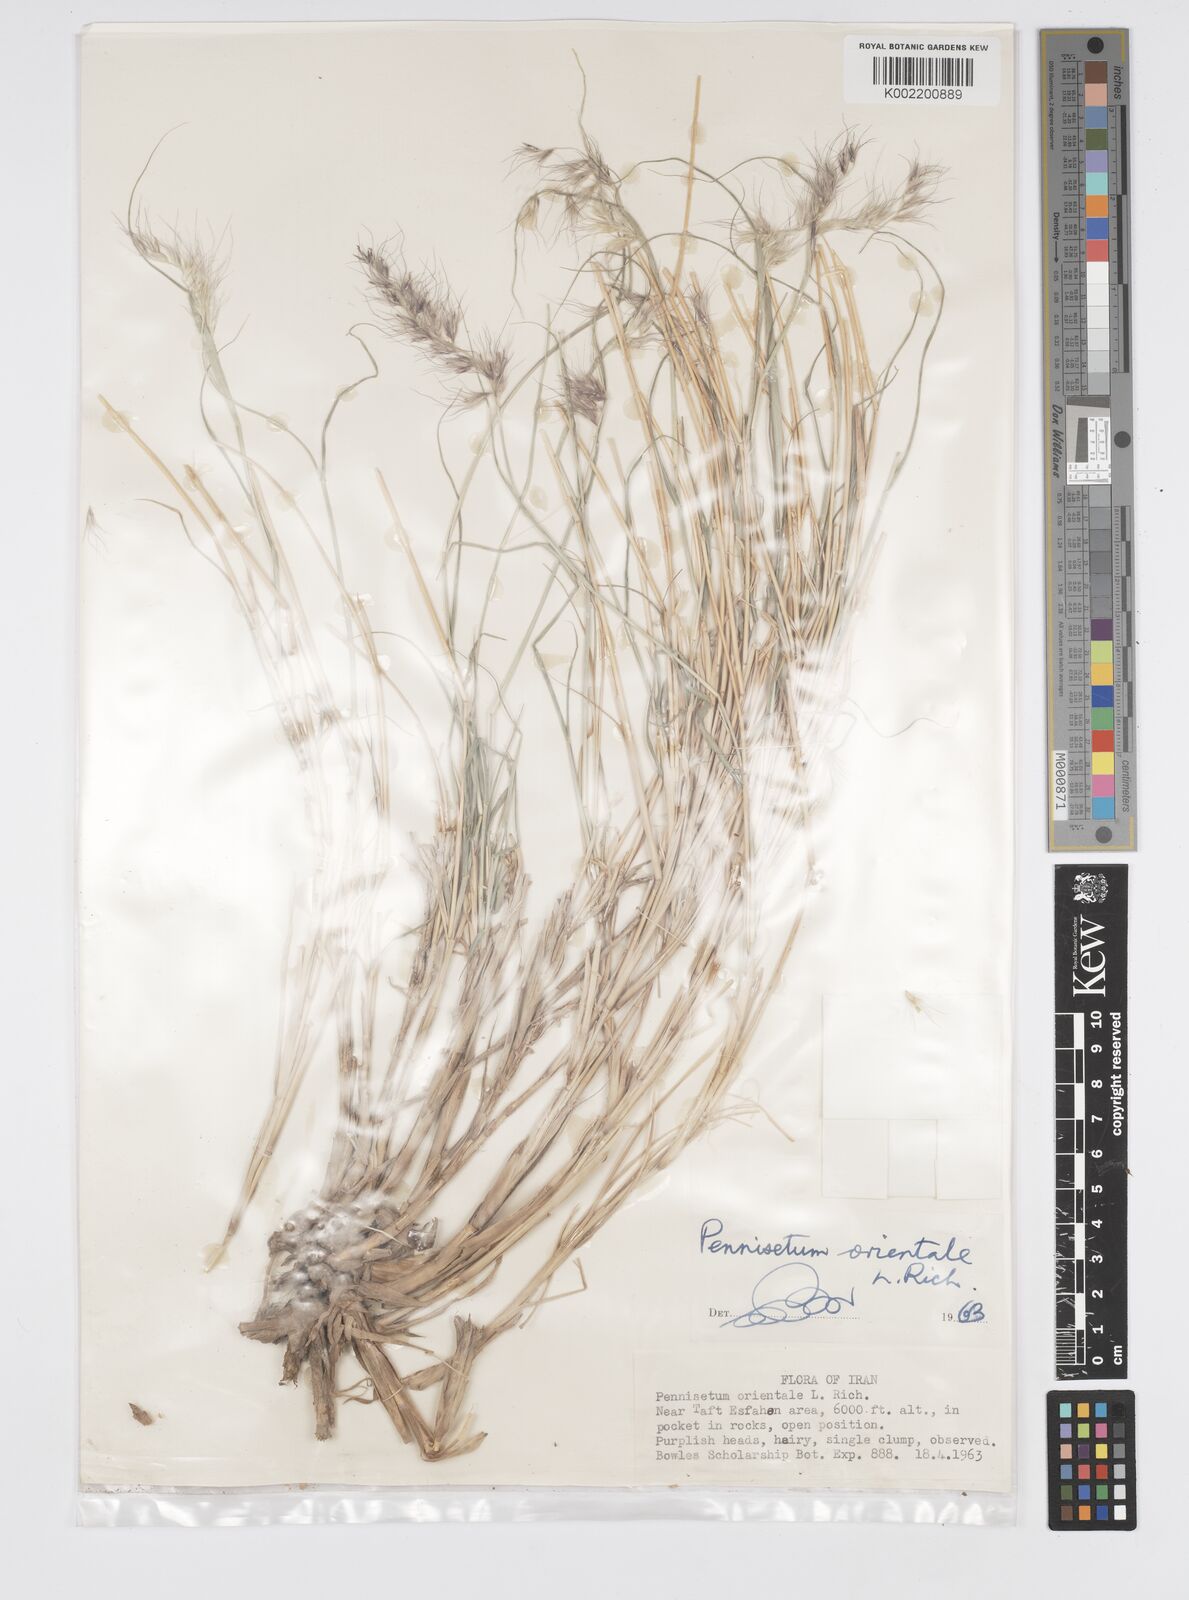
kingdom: Plantae
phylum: Tracheophyta
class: Liliopsida
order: Poales
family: Poaceae
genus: Cenchrus
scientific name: Cenchrus orientalis
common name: Oriental fountain grass
